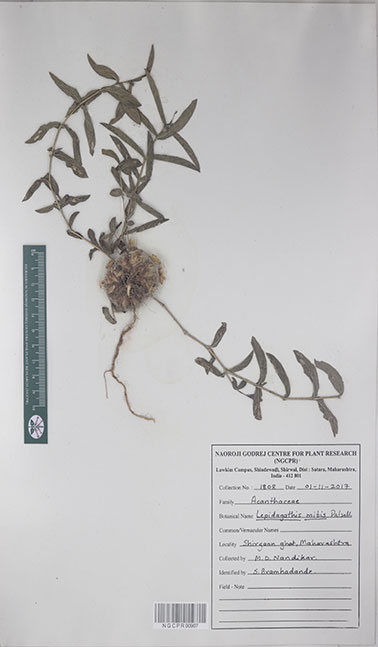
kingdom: Plantae
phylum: Tracheophyta
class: Magnoliopsida
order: Lamiales
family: Acanthaceae
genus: Lepidagathis
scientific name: Lepidagathis mitis
